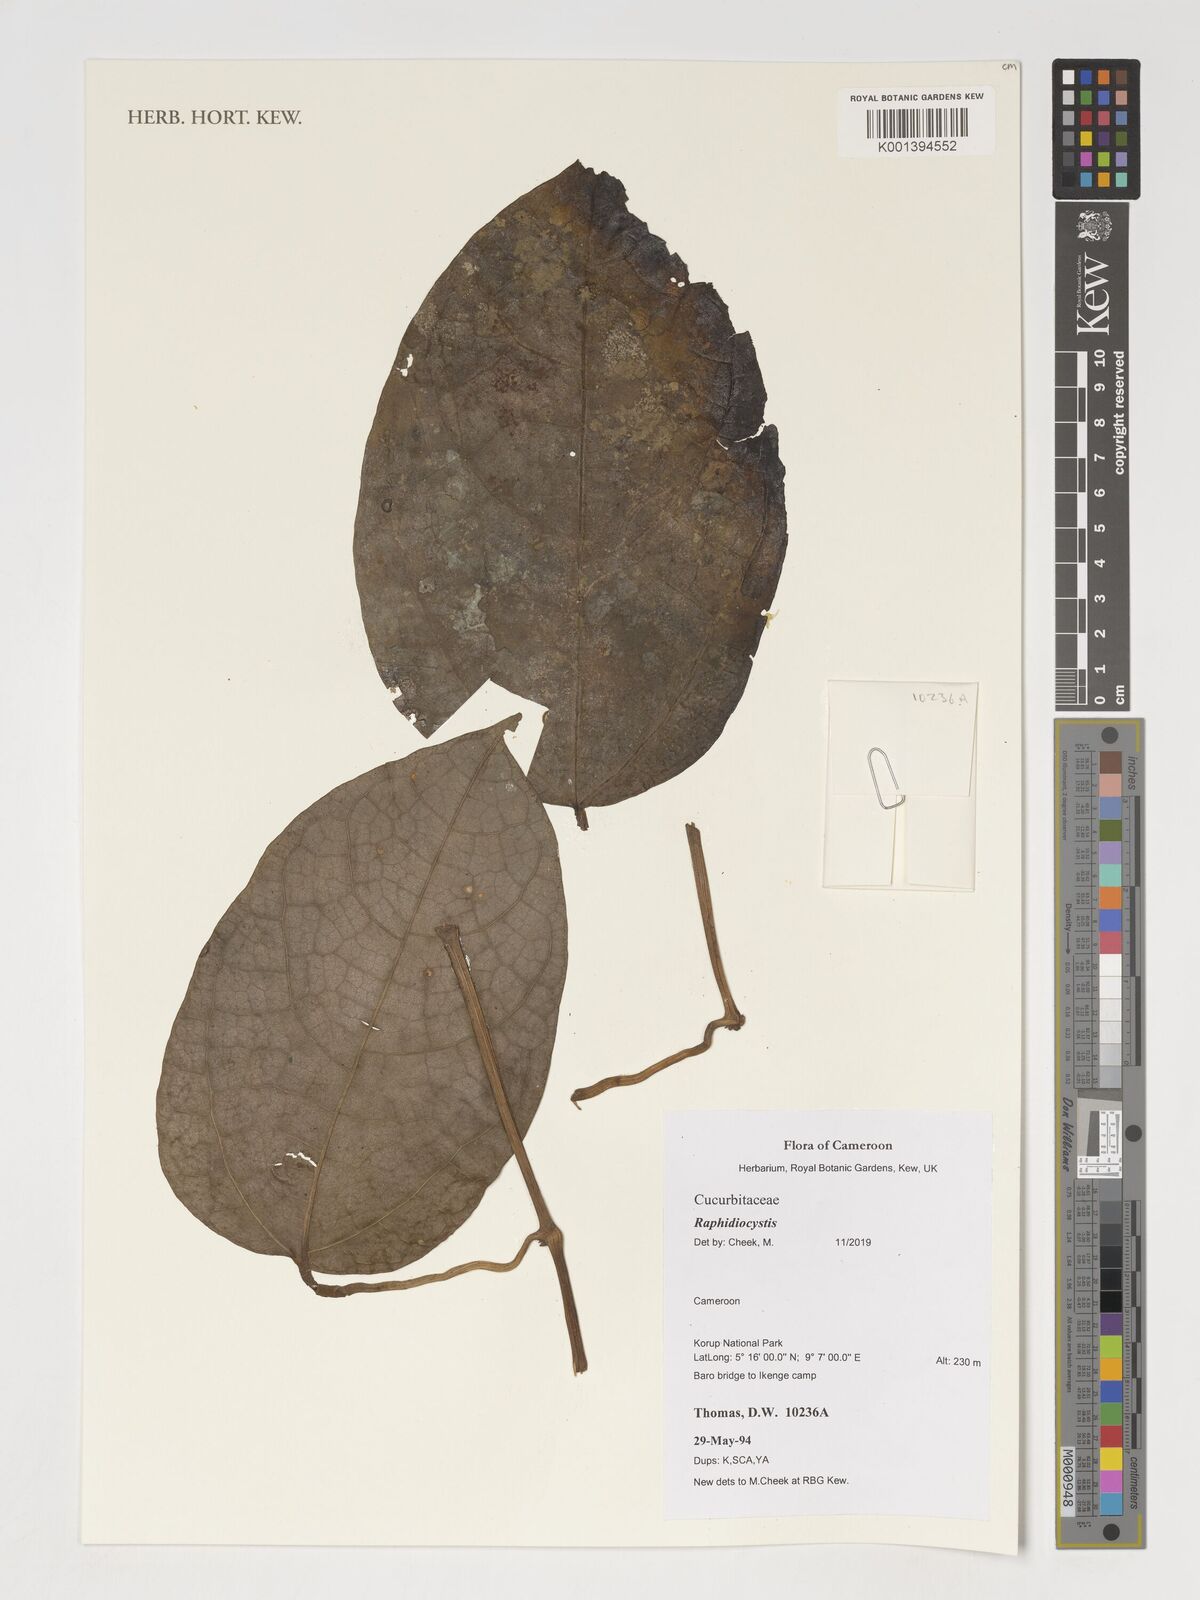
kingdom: Plantae
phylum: Tracheophyta
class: Magnoliopsida
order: Cucurbitales
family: Cucurbitaceae
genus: Raphidiocystis
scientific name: Raphidiocystis
